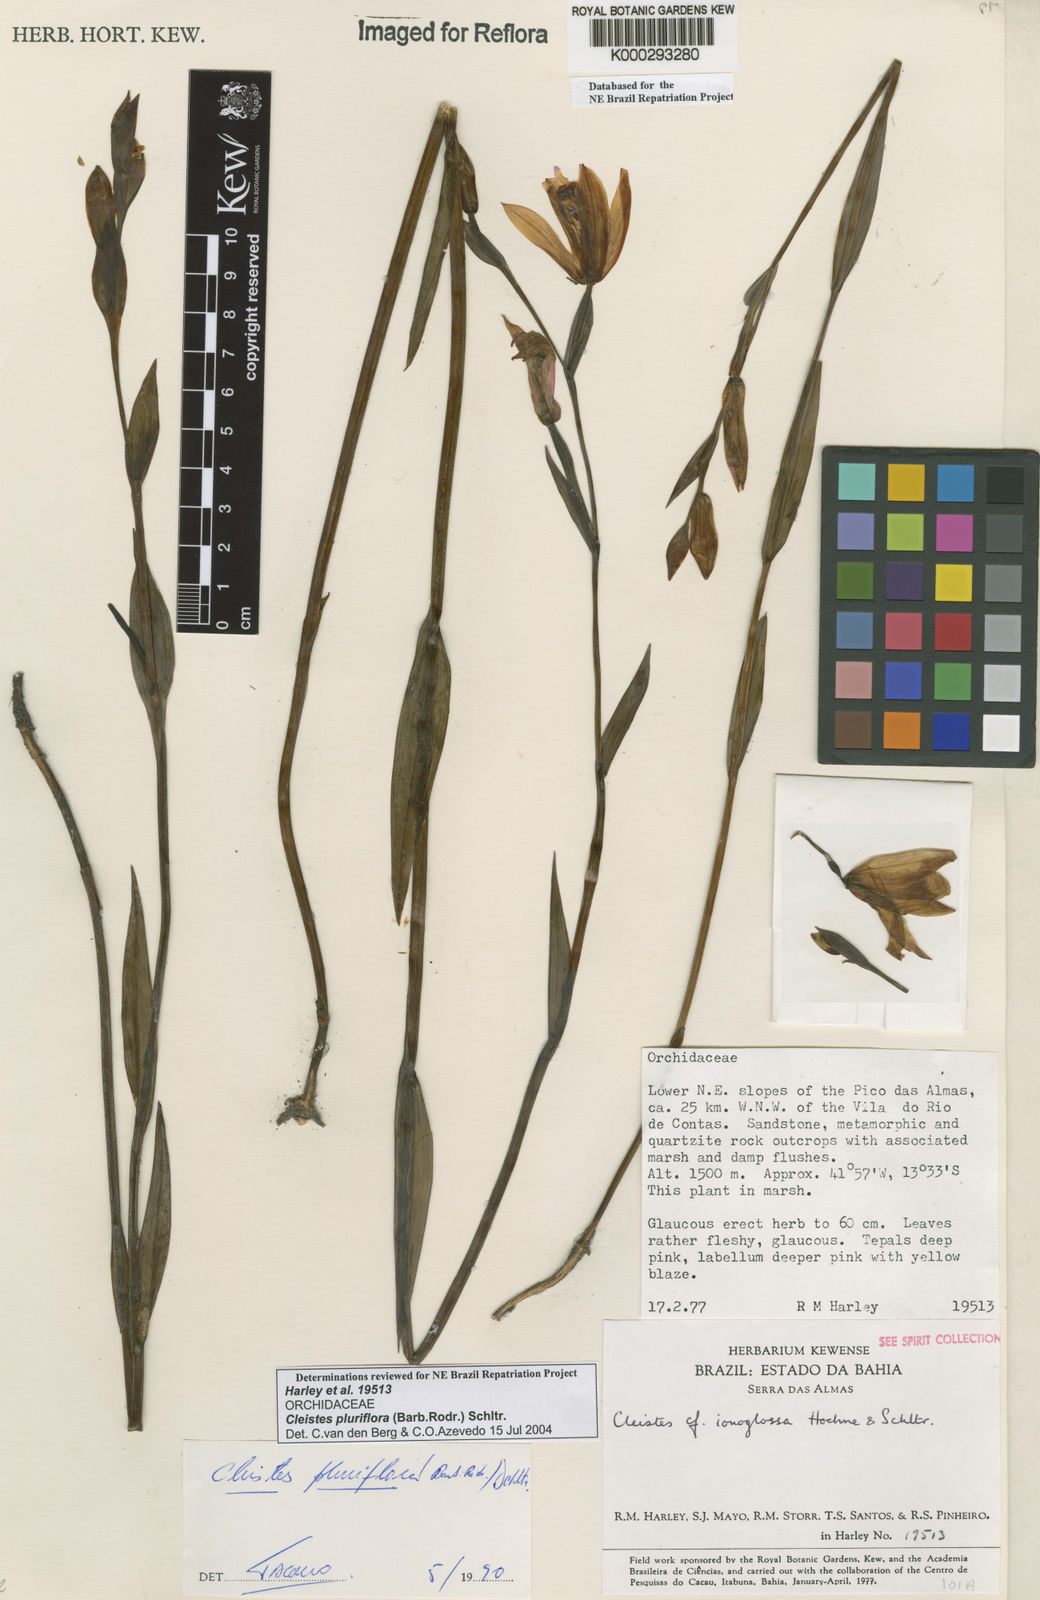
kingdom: Plantae
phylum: Tracheophyta
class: Liliopsida
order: Asparagales
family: Orchidaceae
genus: Cleistes
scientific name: Cleistes moritzii
